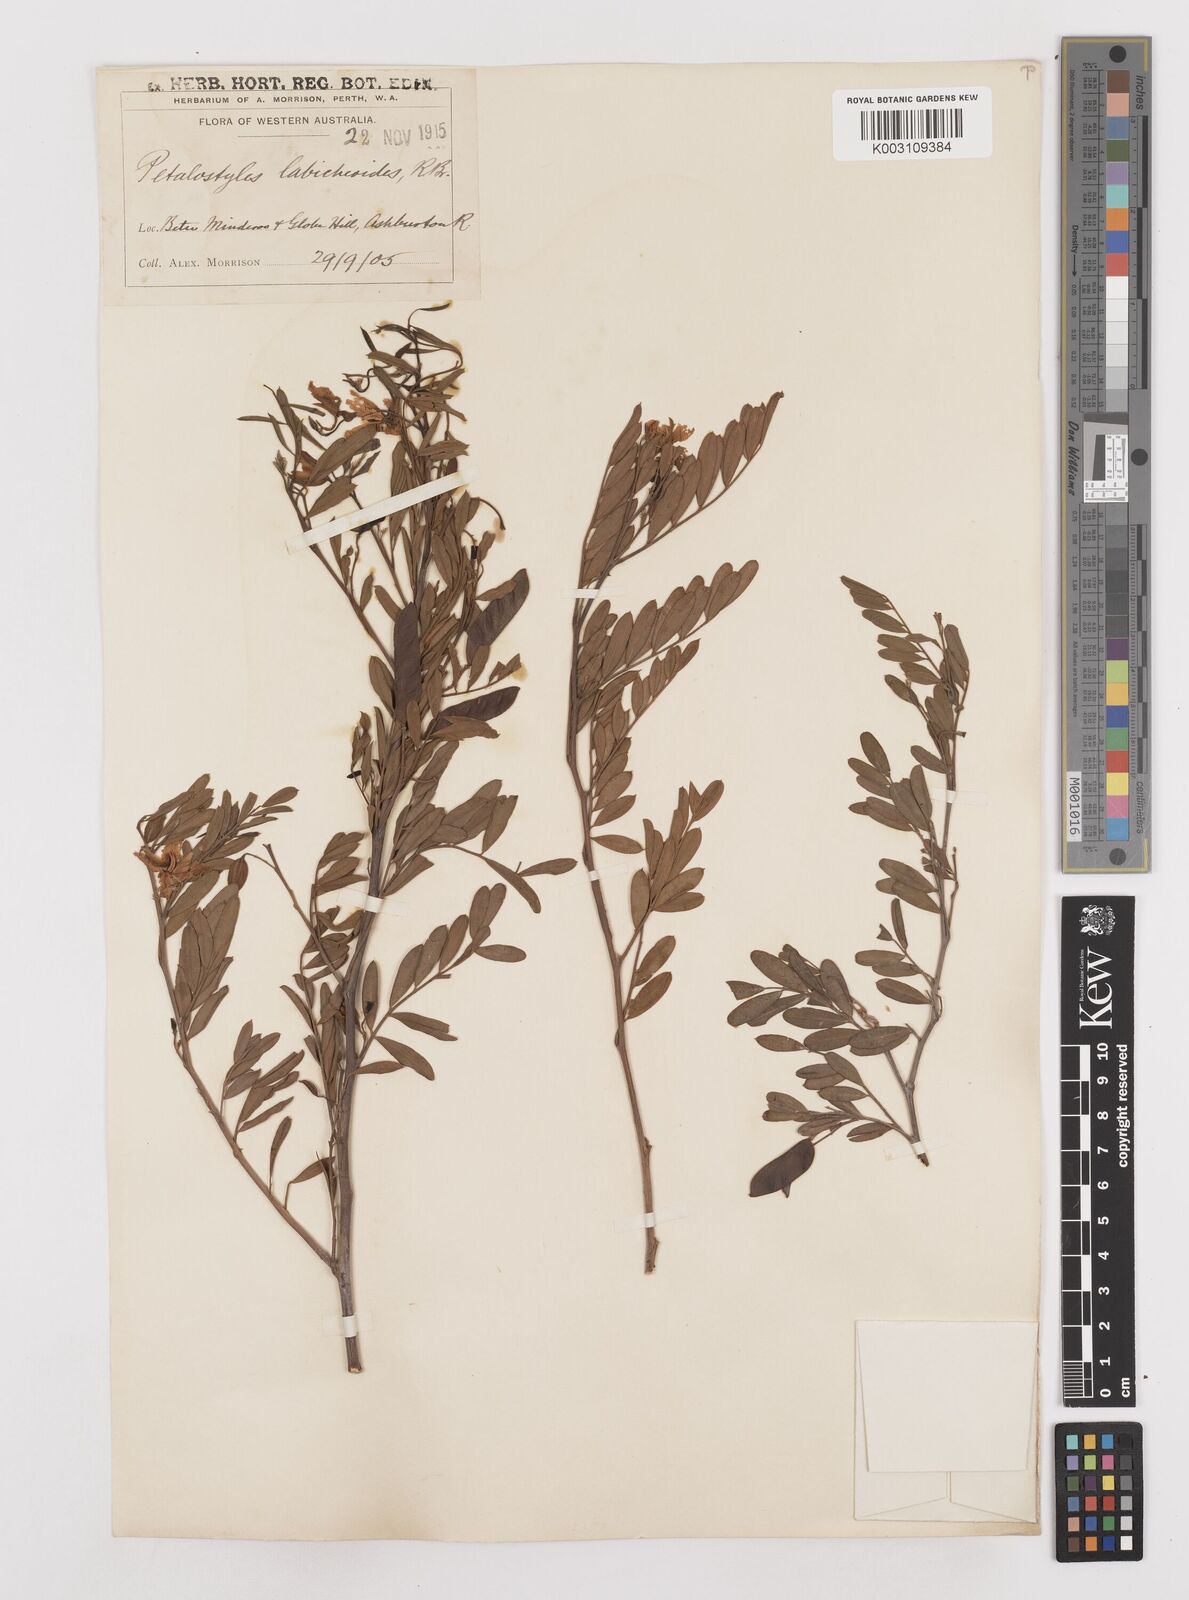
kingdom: Plantae
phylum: Tracheophyta
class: Magnoliopsida
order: Fabales
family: Fabaceae
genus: Petalostylis
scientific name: Petalostylis labicheoides
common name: Butterfly bush
